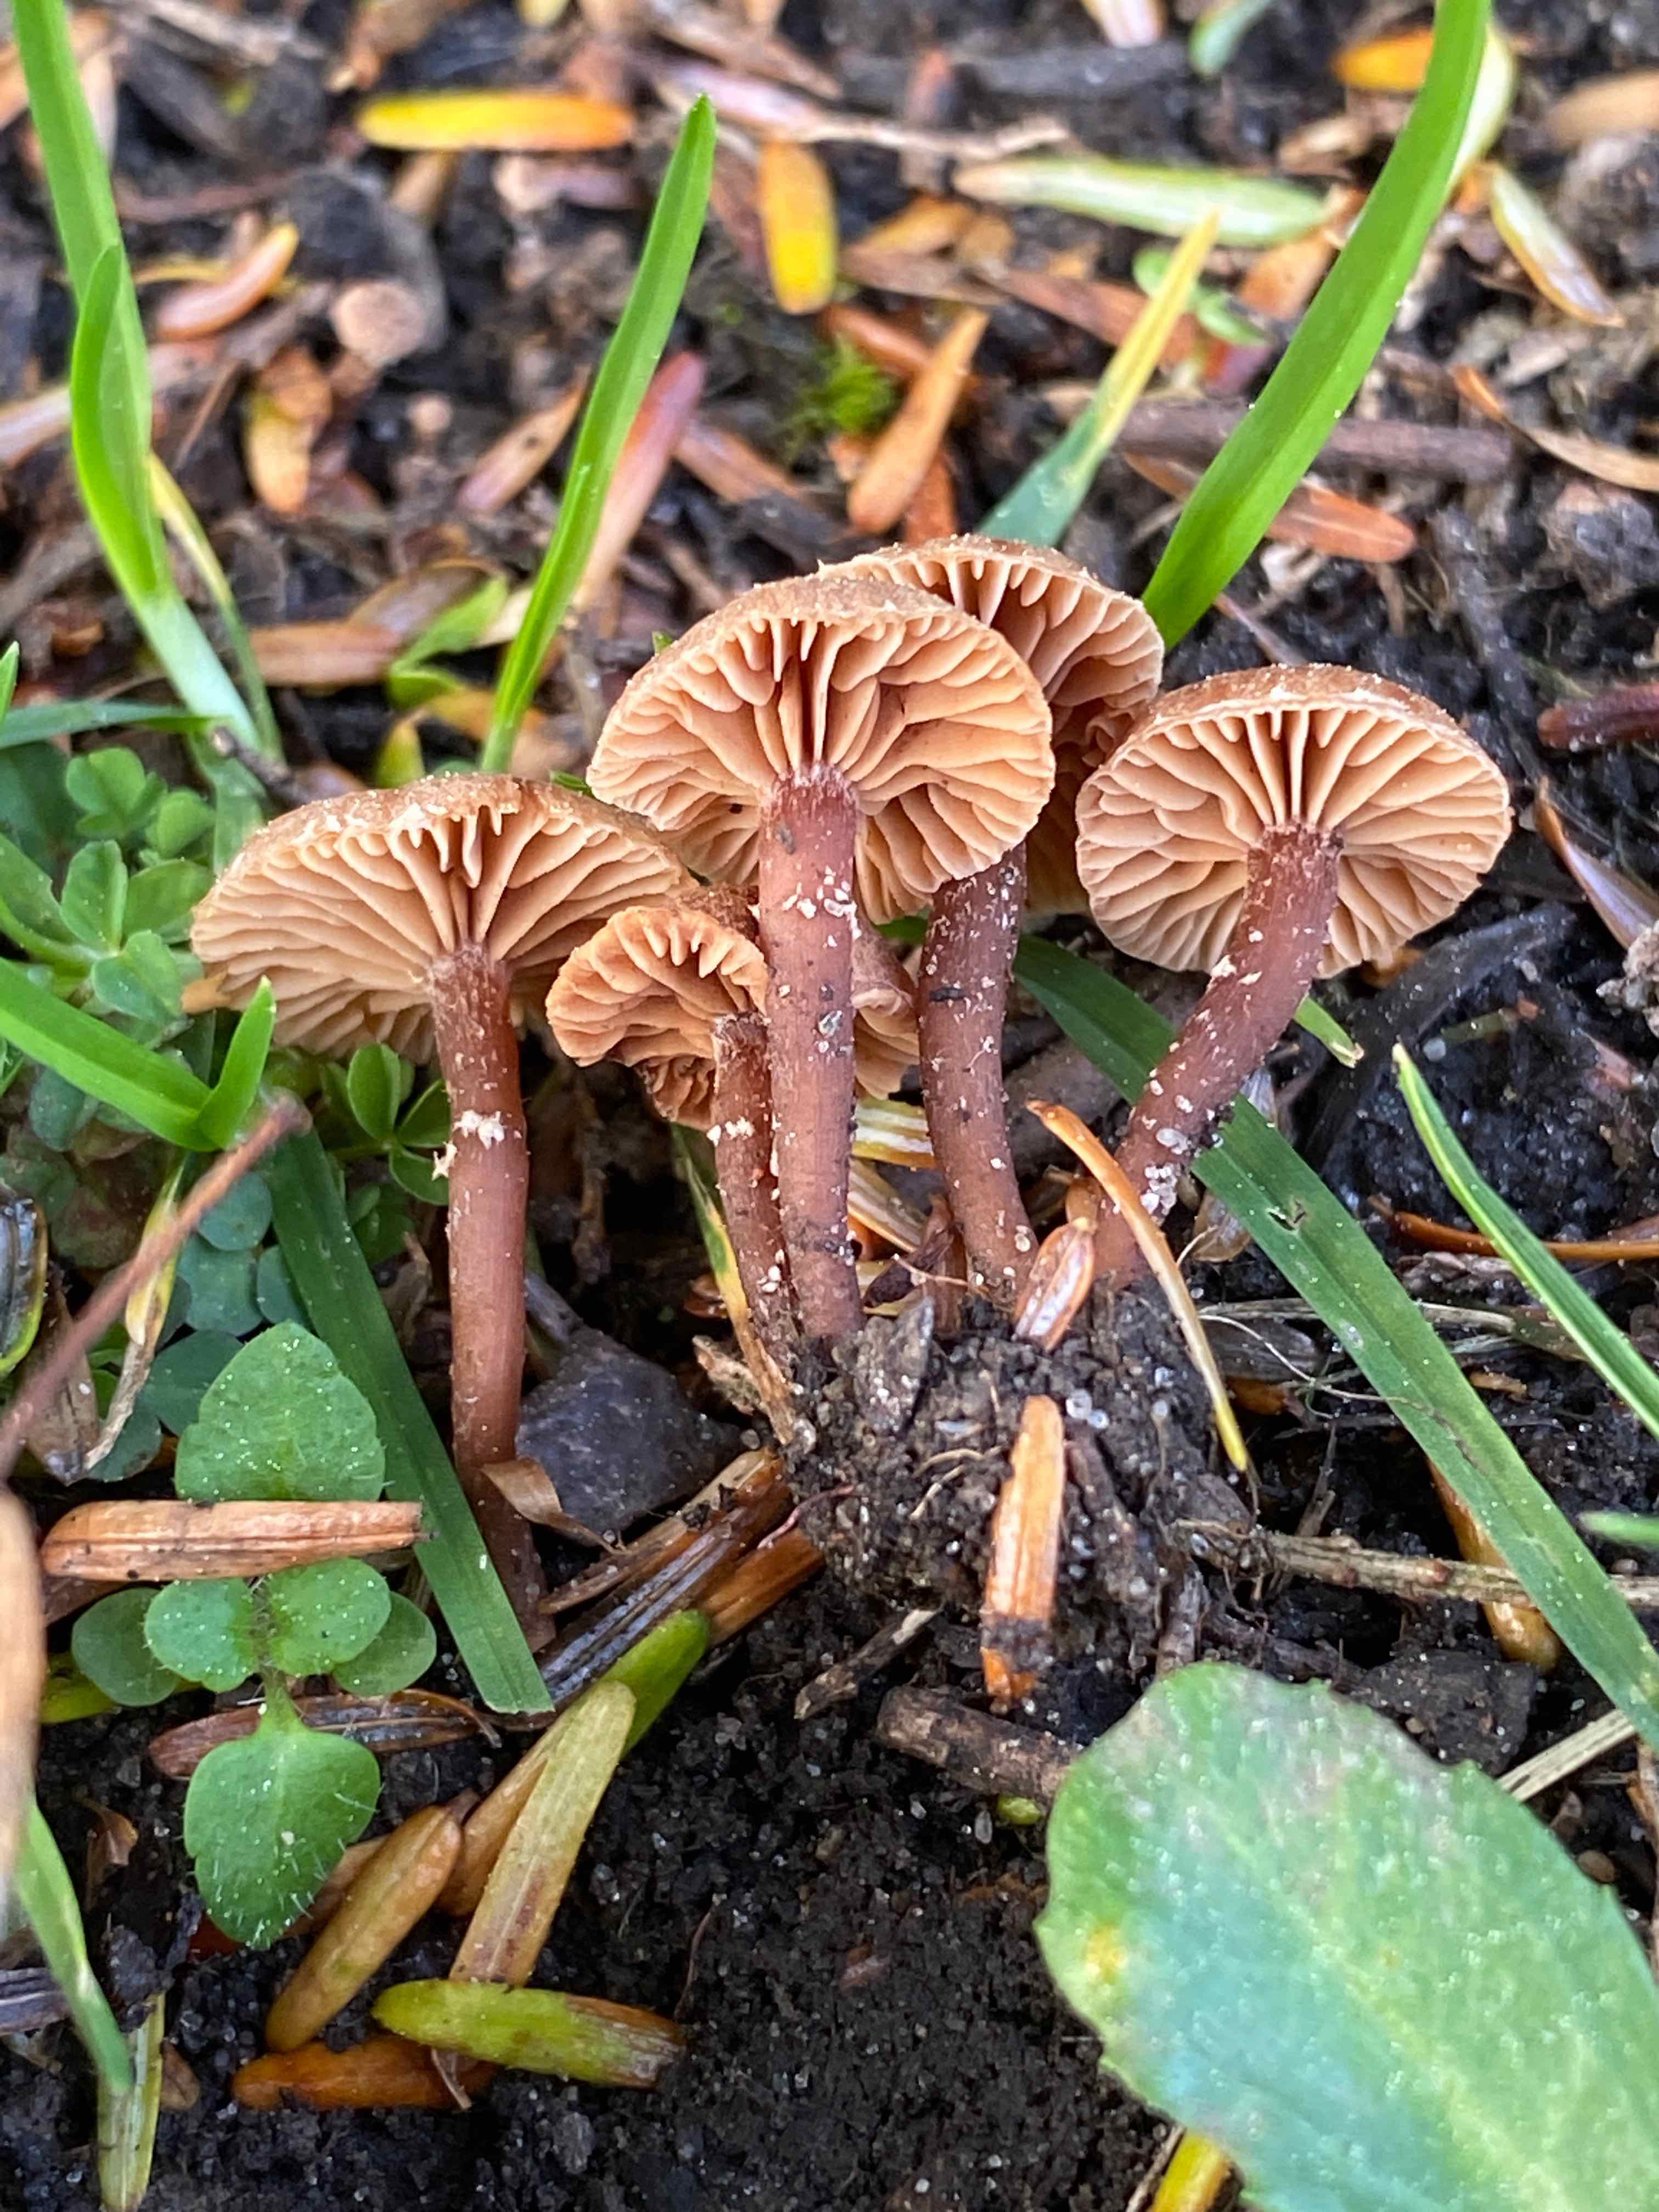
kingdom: Fungi
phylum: Basidiomycota
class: Agaricomycetes
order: Agaricales
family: Tubariaceae
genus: Tubaria
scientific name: Tubaria conspersa
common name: bleg fnughat
